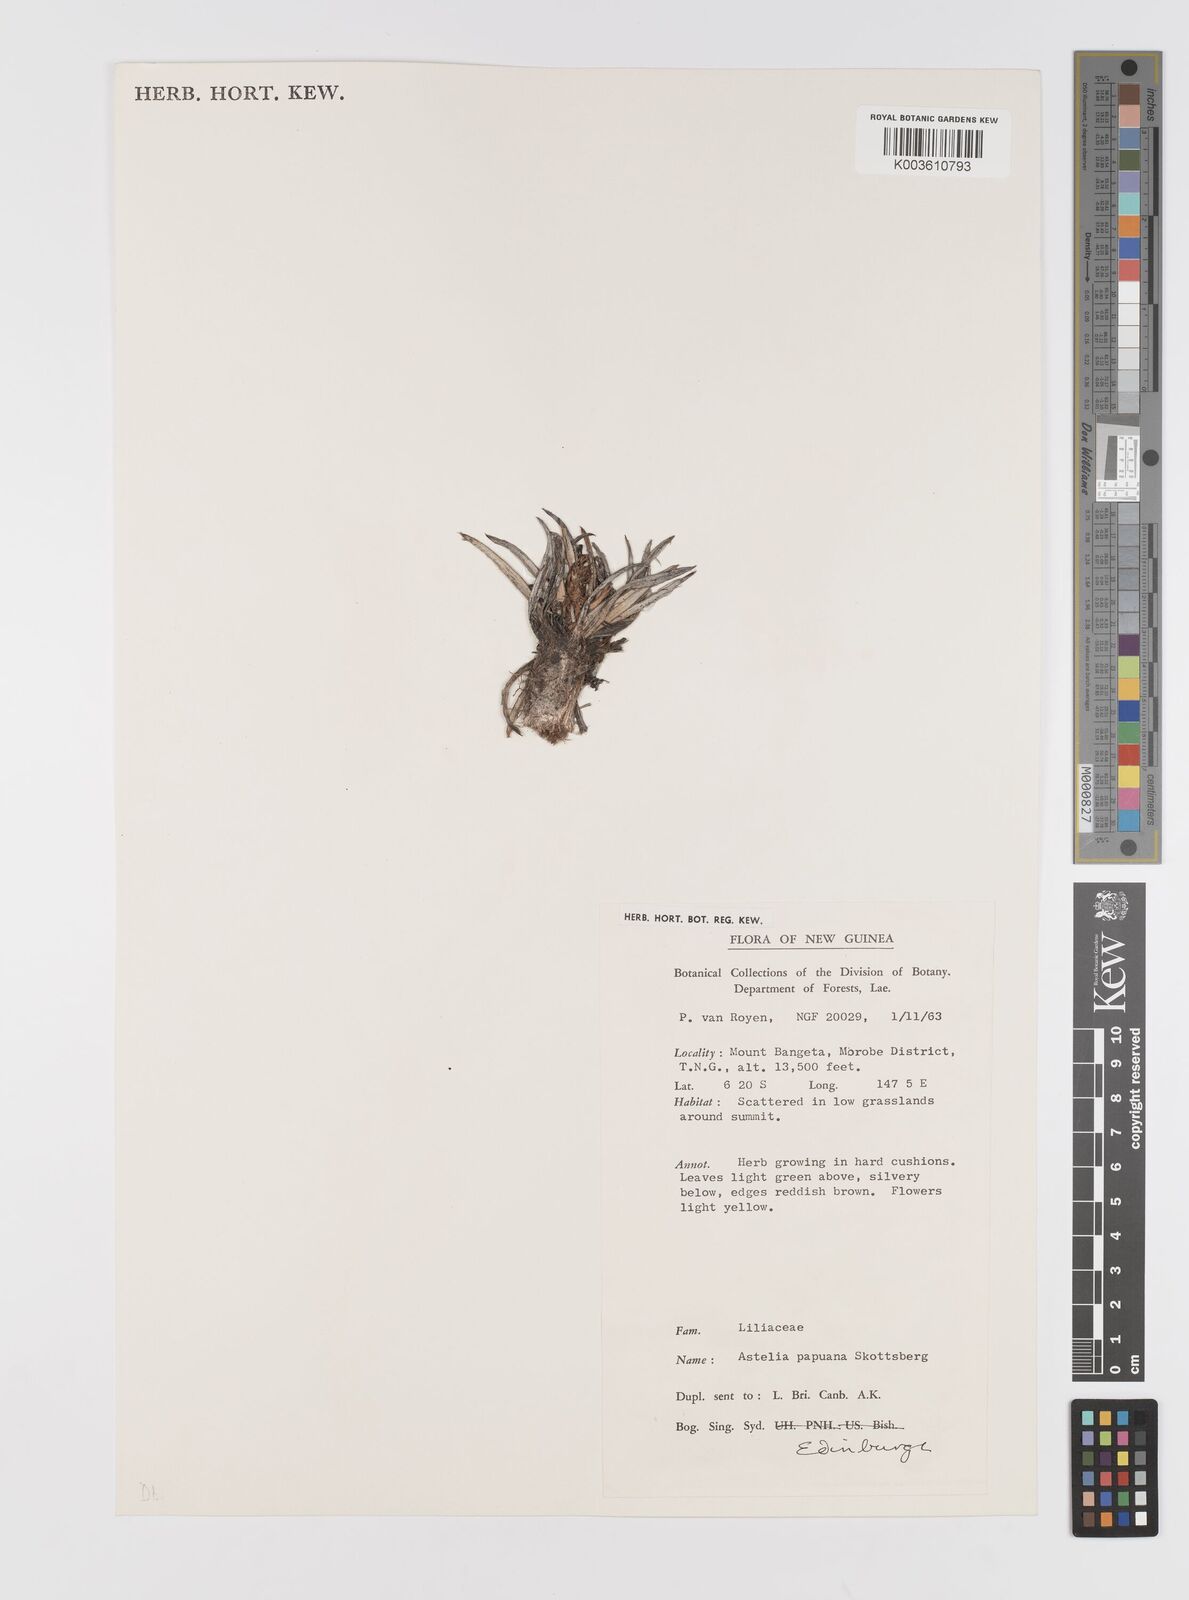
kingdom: Plantae
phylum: Tracheophyta
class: Liliopsida
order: Asparagales
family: Asteliaceae
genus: Astelia
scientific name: Astelia papuana
